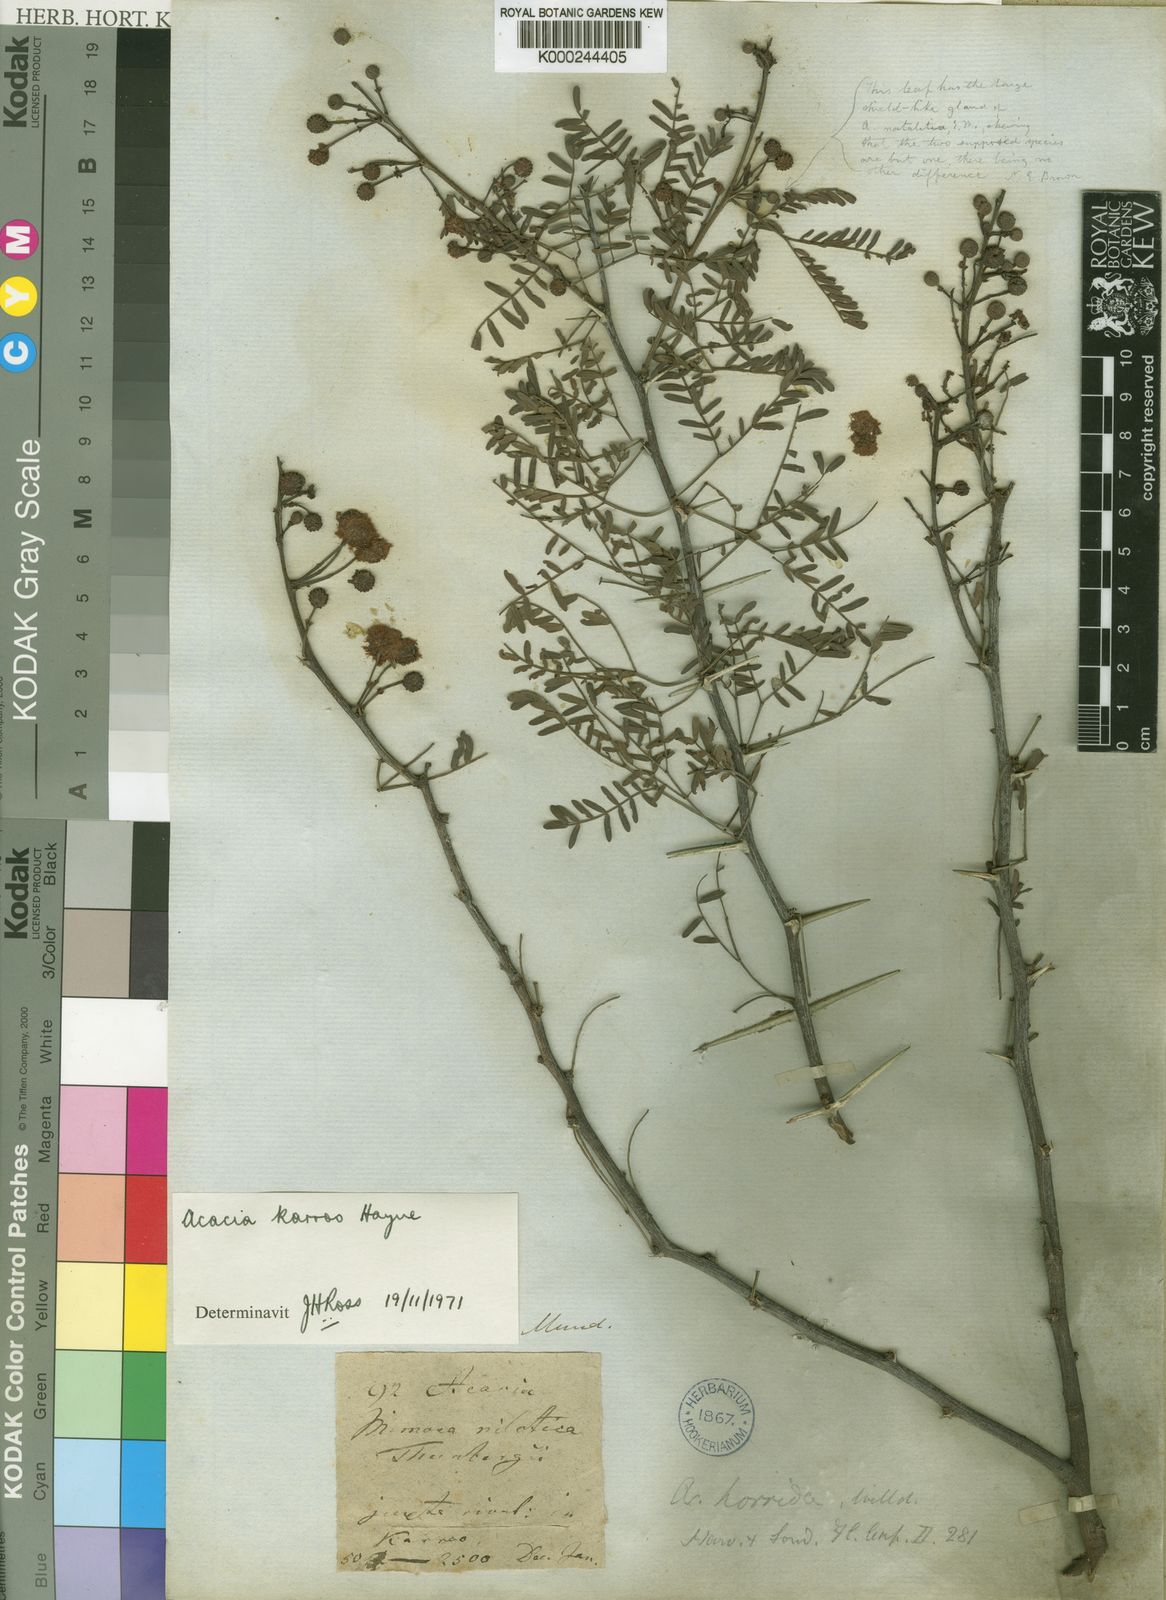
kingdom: Plantae
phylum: Tracheophyta
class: Magnoliopsida
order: Fabales
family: Fabaceae
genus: Vachellia
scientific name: Vachellia karroo
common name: Sweet thorn
